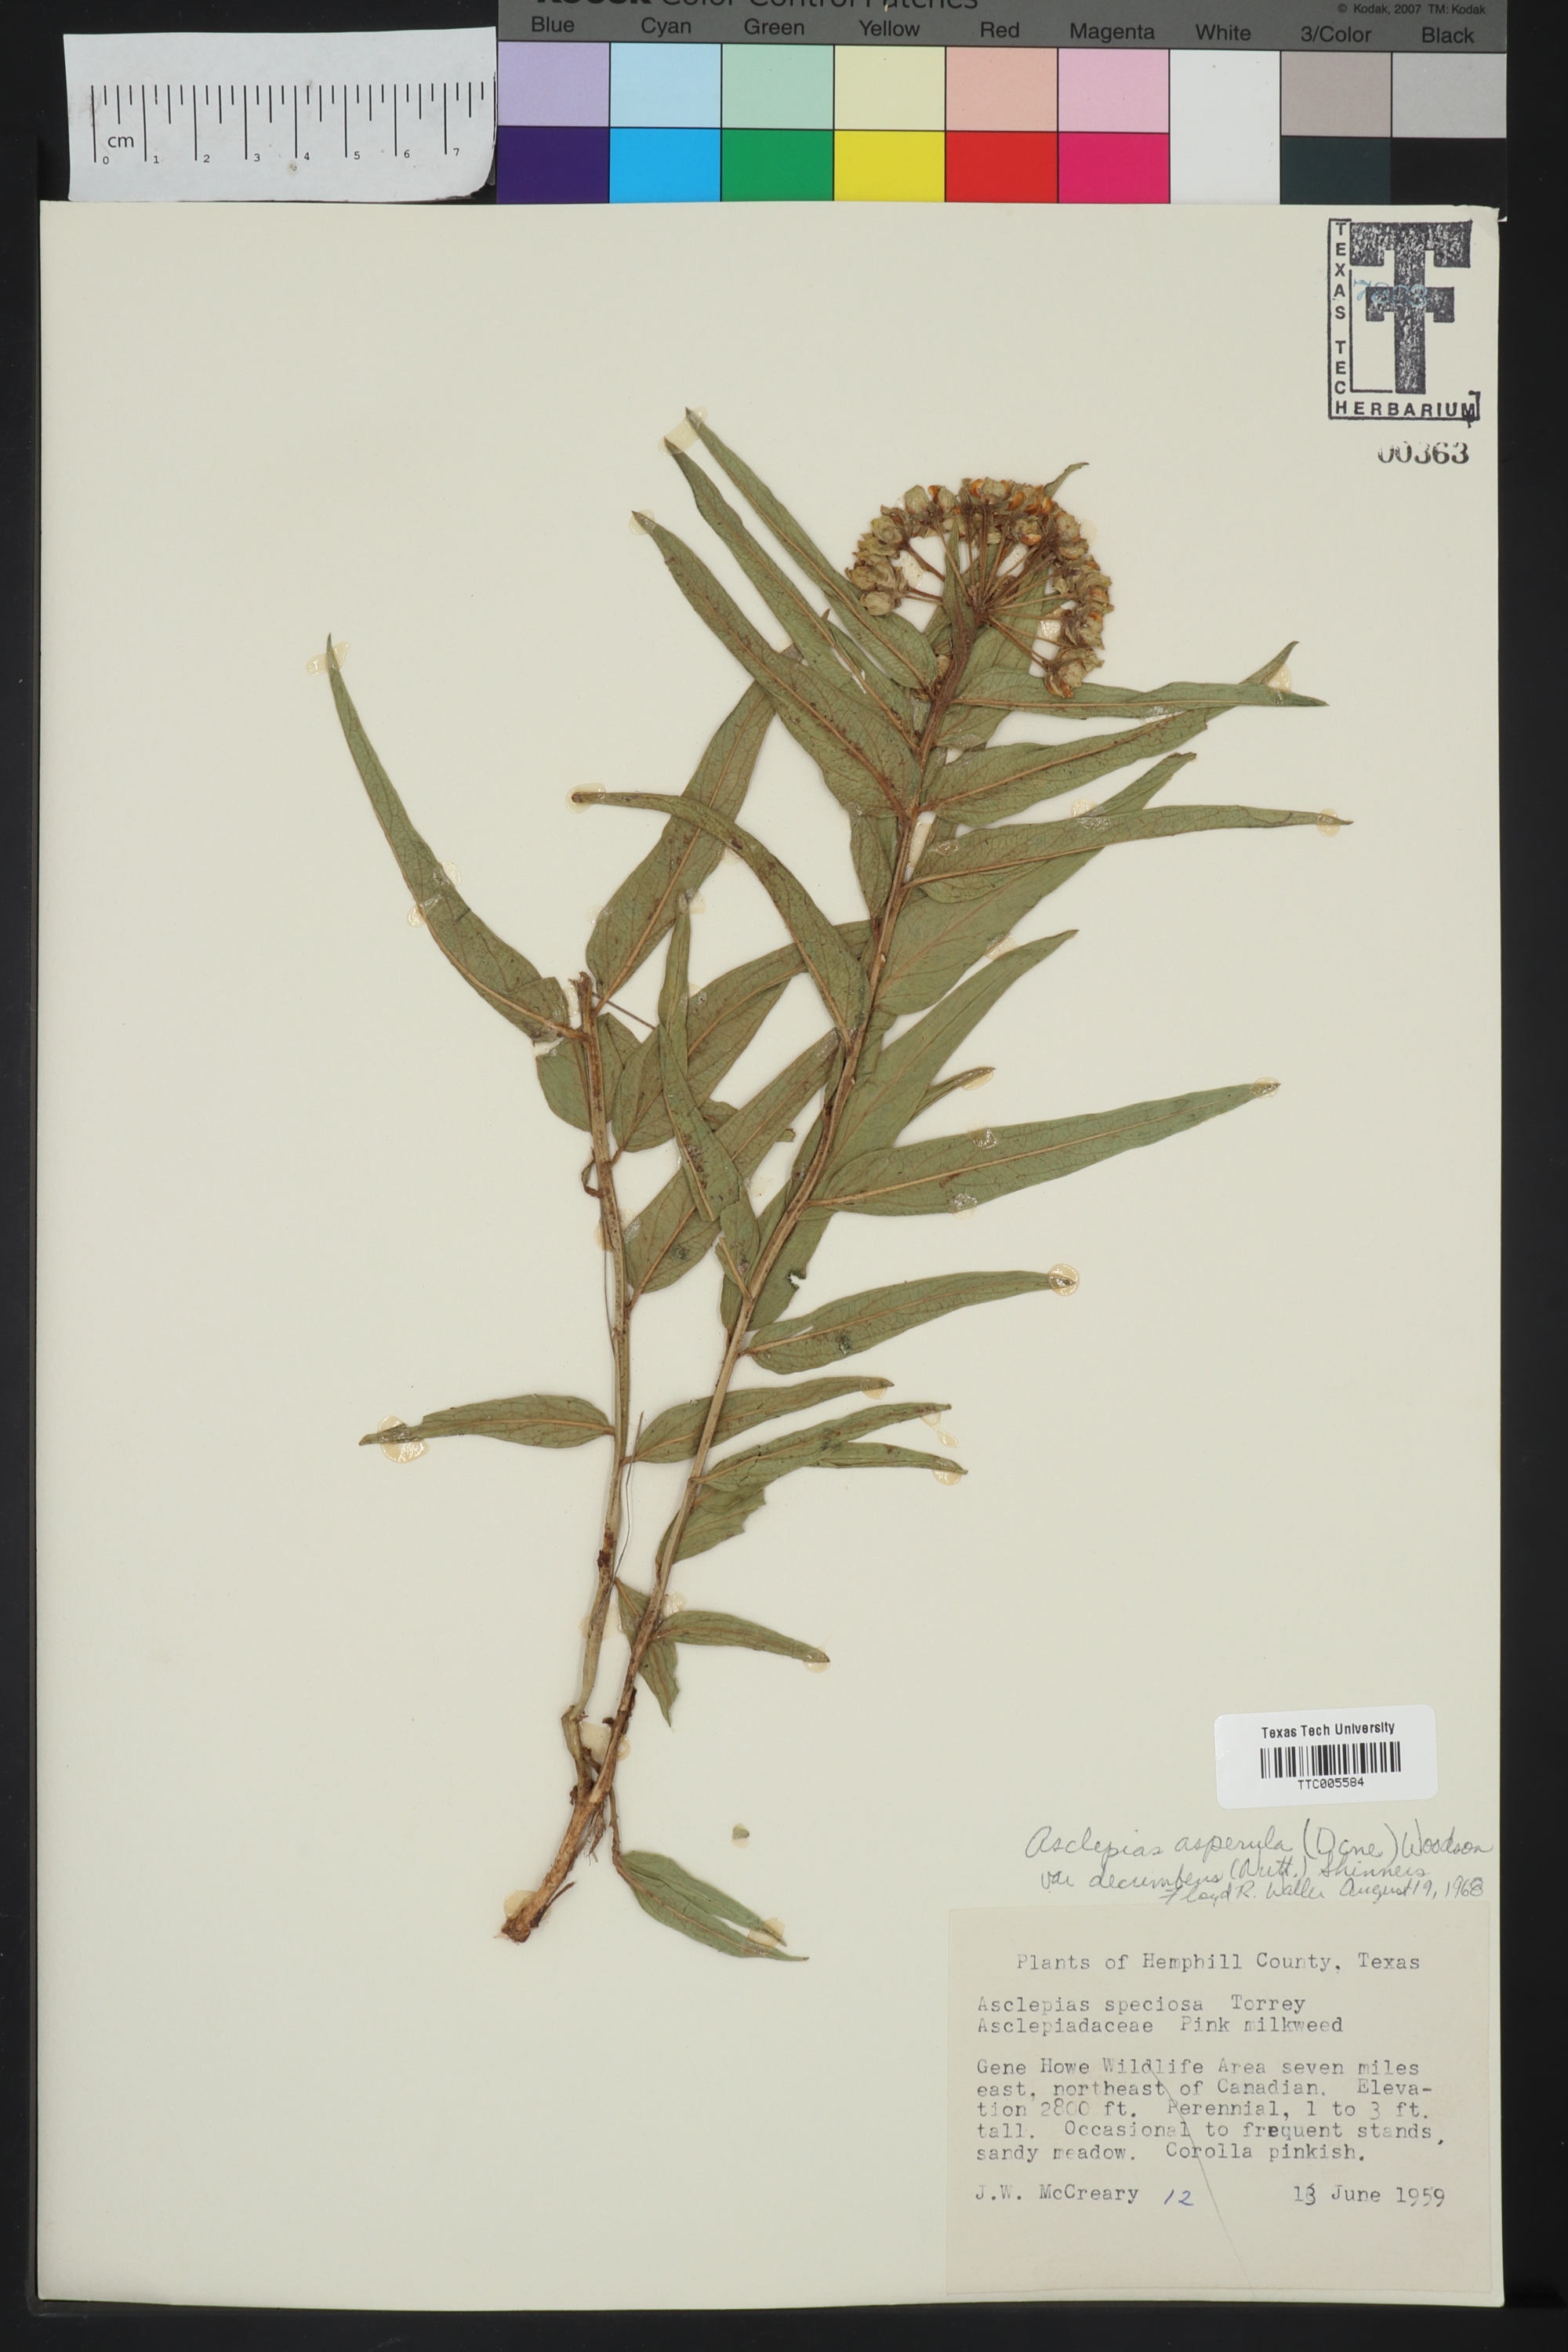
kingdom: Plantae
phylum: Tracheophyta
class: Magnoliopsida
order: Gentianales
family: Apocynaceae
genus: Asclepias
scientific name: Asclepias asperula
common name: Antelope horns
